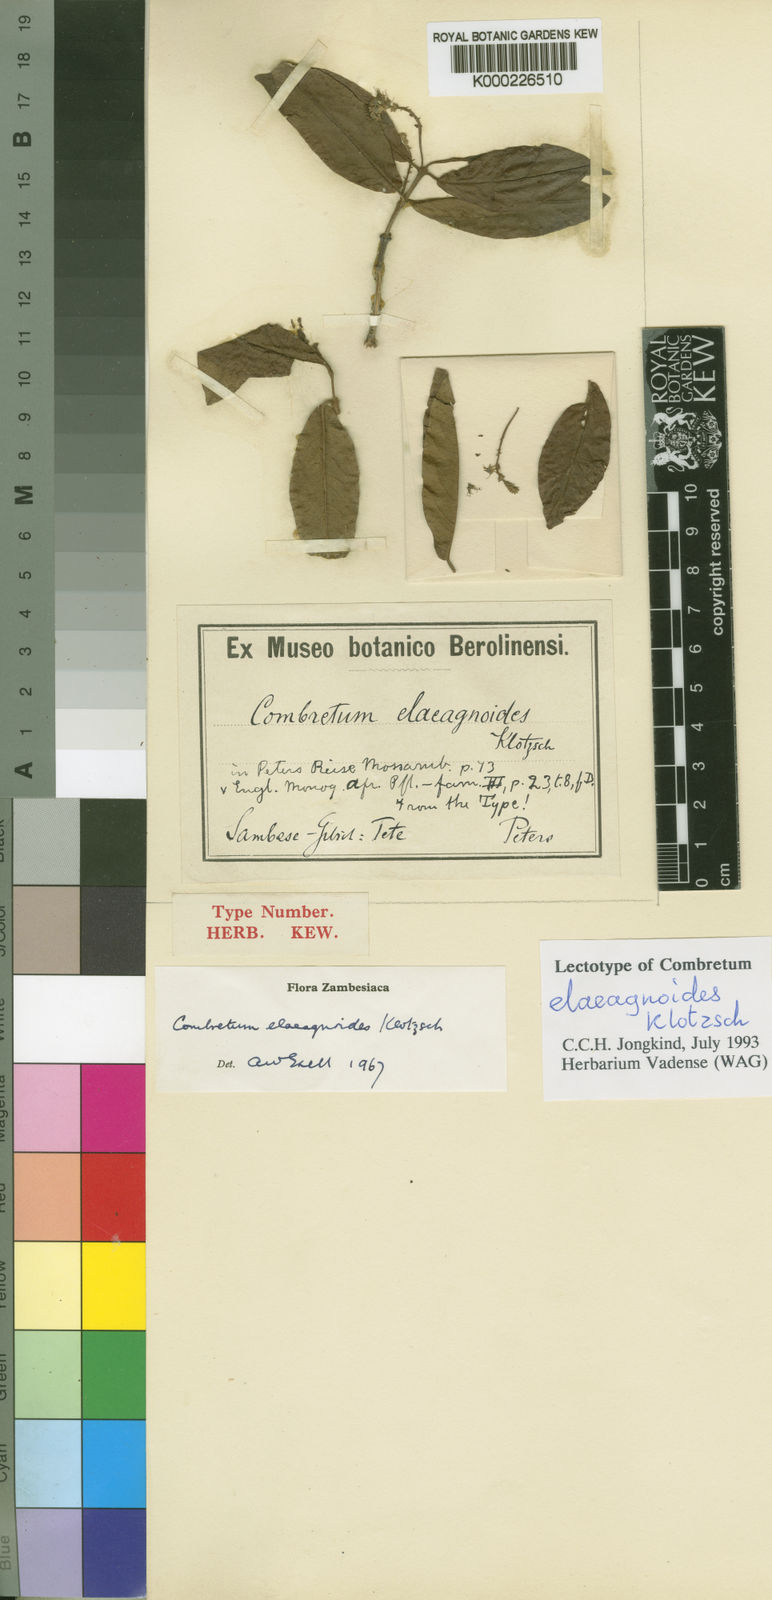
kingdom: Plantae
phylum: Tracheophyta
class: Magnoliopsida
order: Myrtales
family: Combretaceae
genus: Combretum
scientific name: Combretum elaeagnoides
